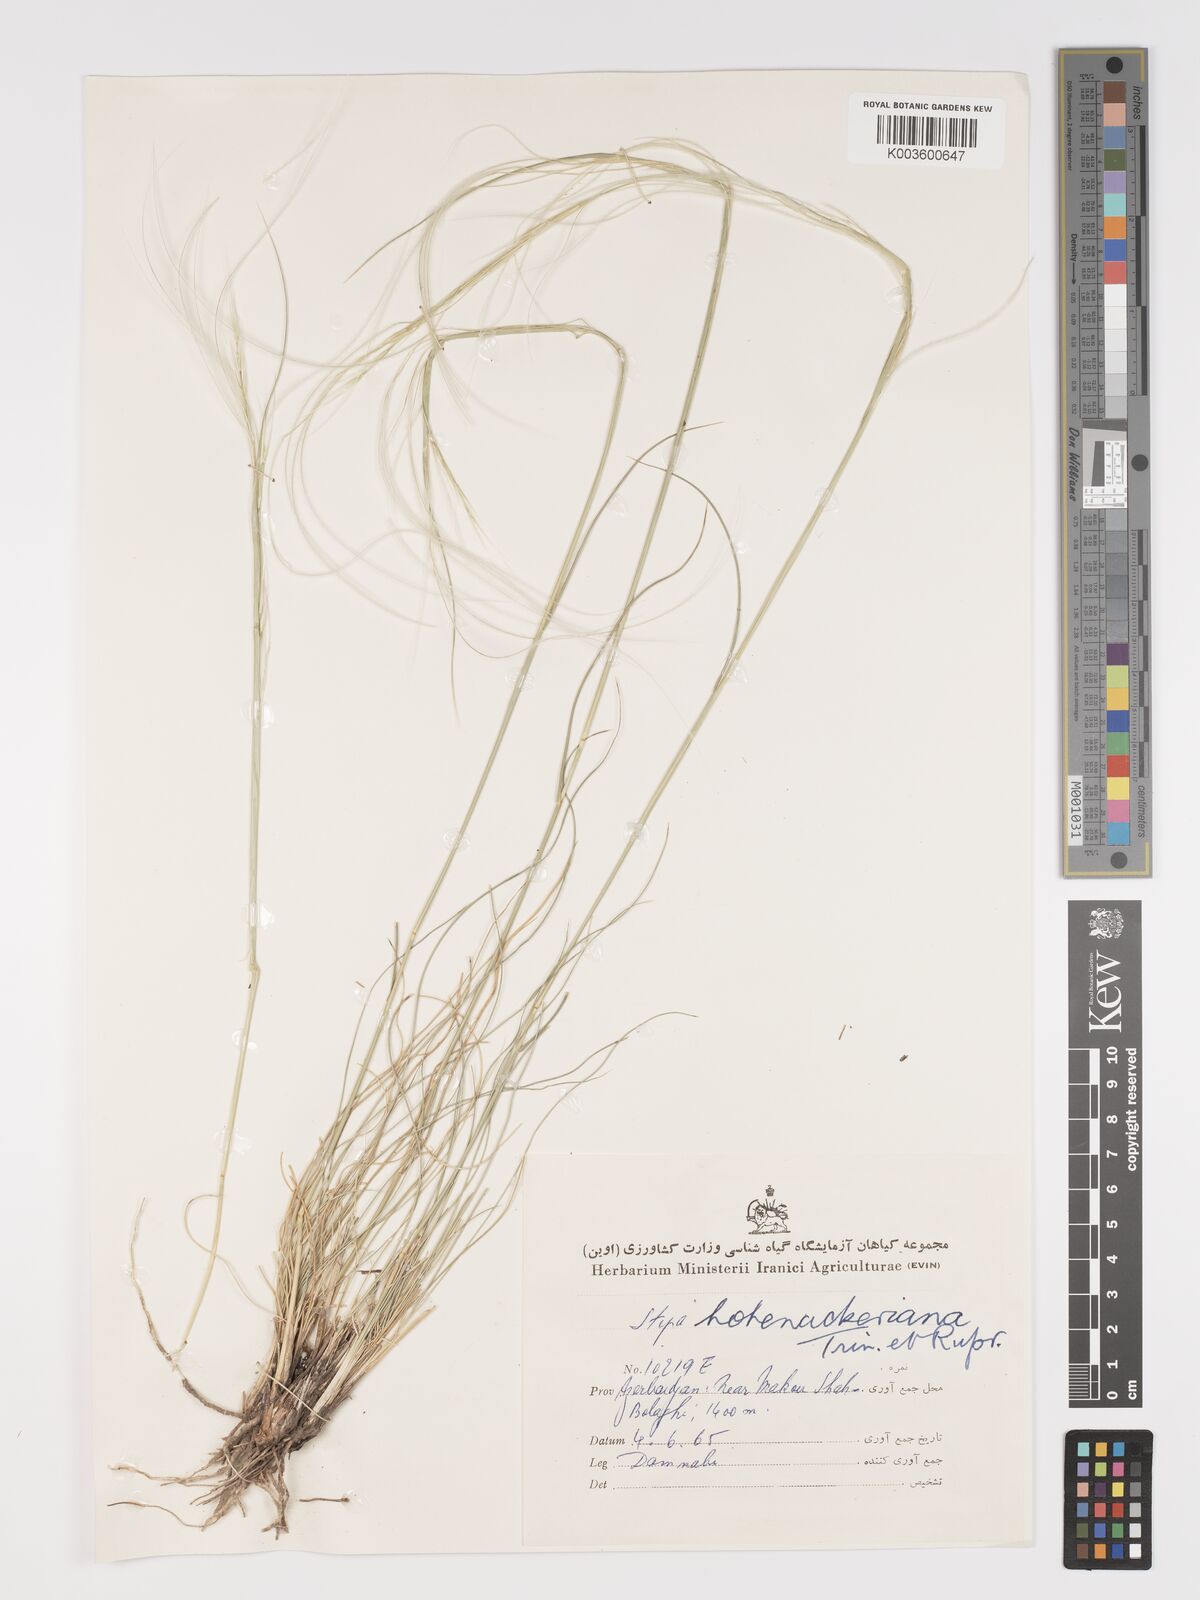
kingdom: Plantae
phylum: Tracheophyta
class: Liliopsida
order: Poales
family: Poaceae
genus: Stipa
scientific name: Stipa hohenackeriana
